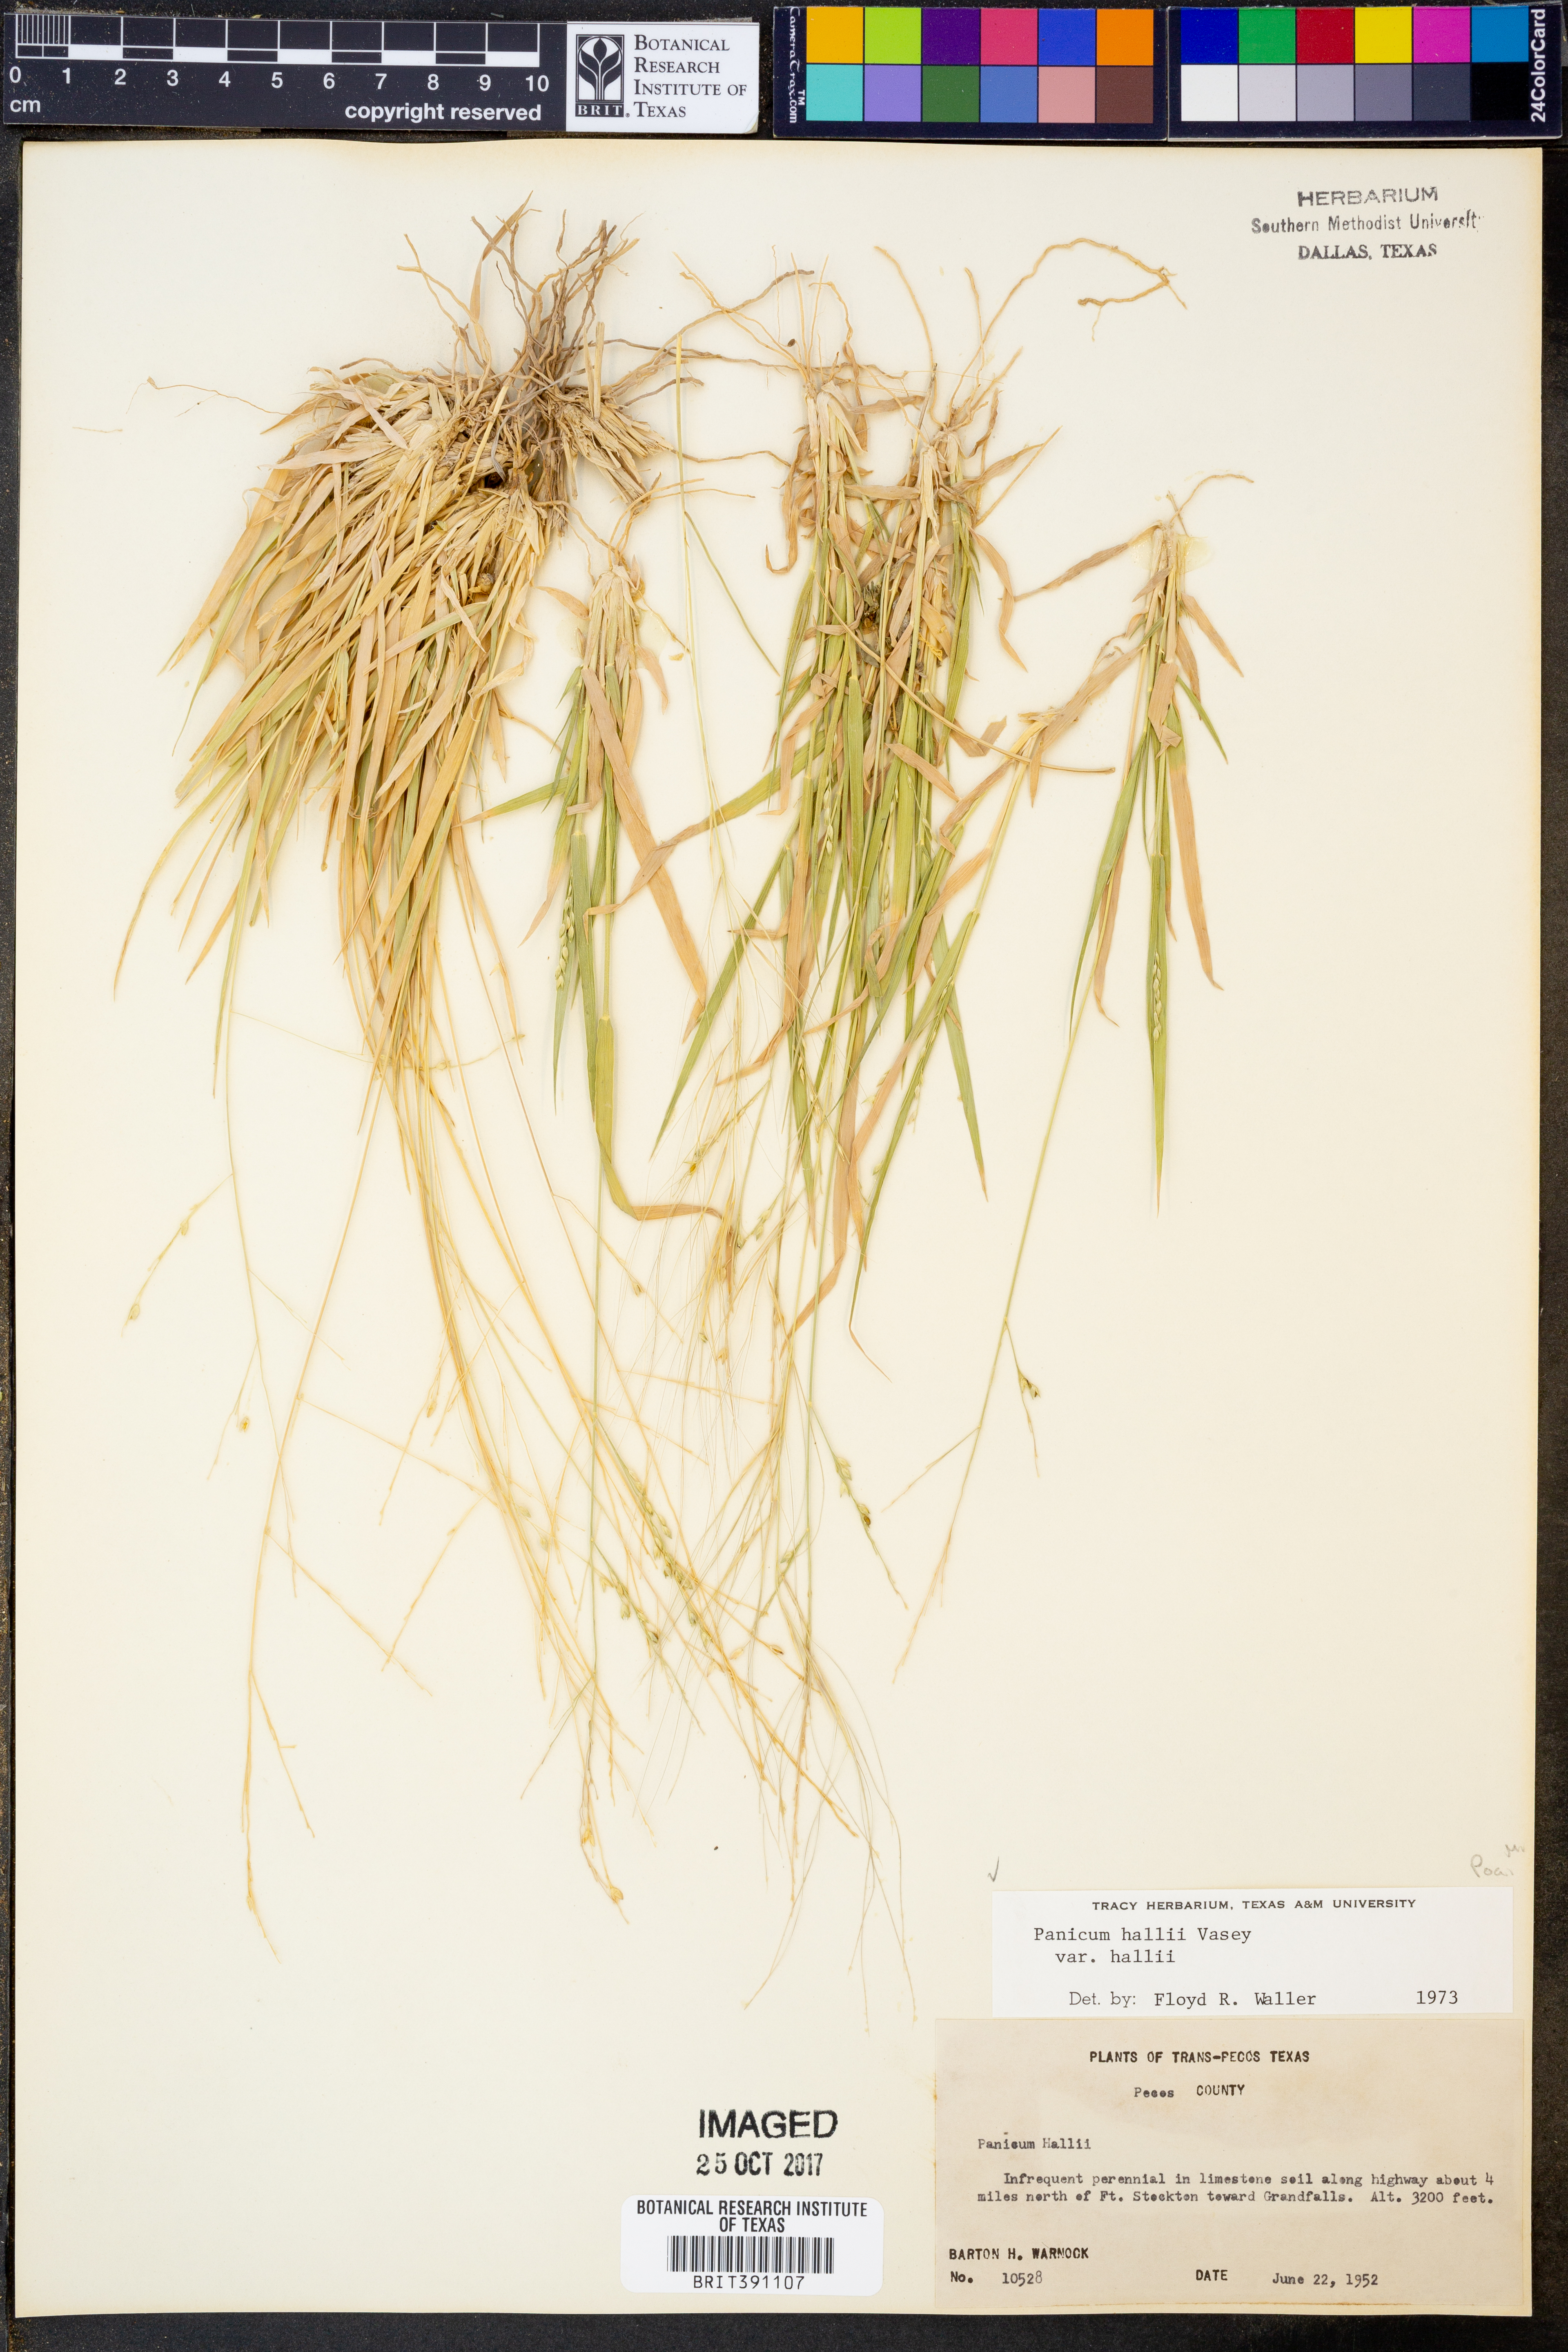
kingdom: Plantae
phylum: Tracheophyta
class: Liliopsida
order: Poales
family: Poaceae
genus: Panicum
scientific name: Panicum hallii
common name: Hall's witchgrass
